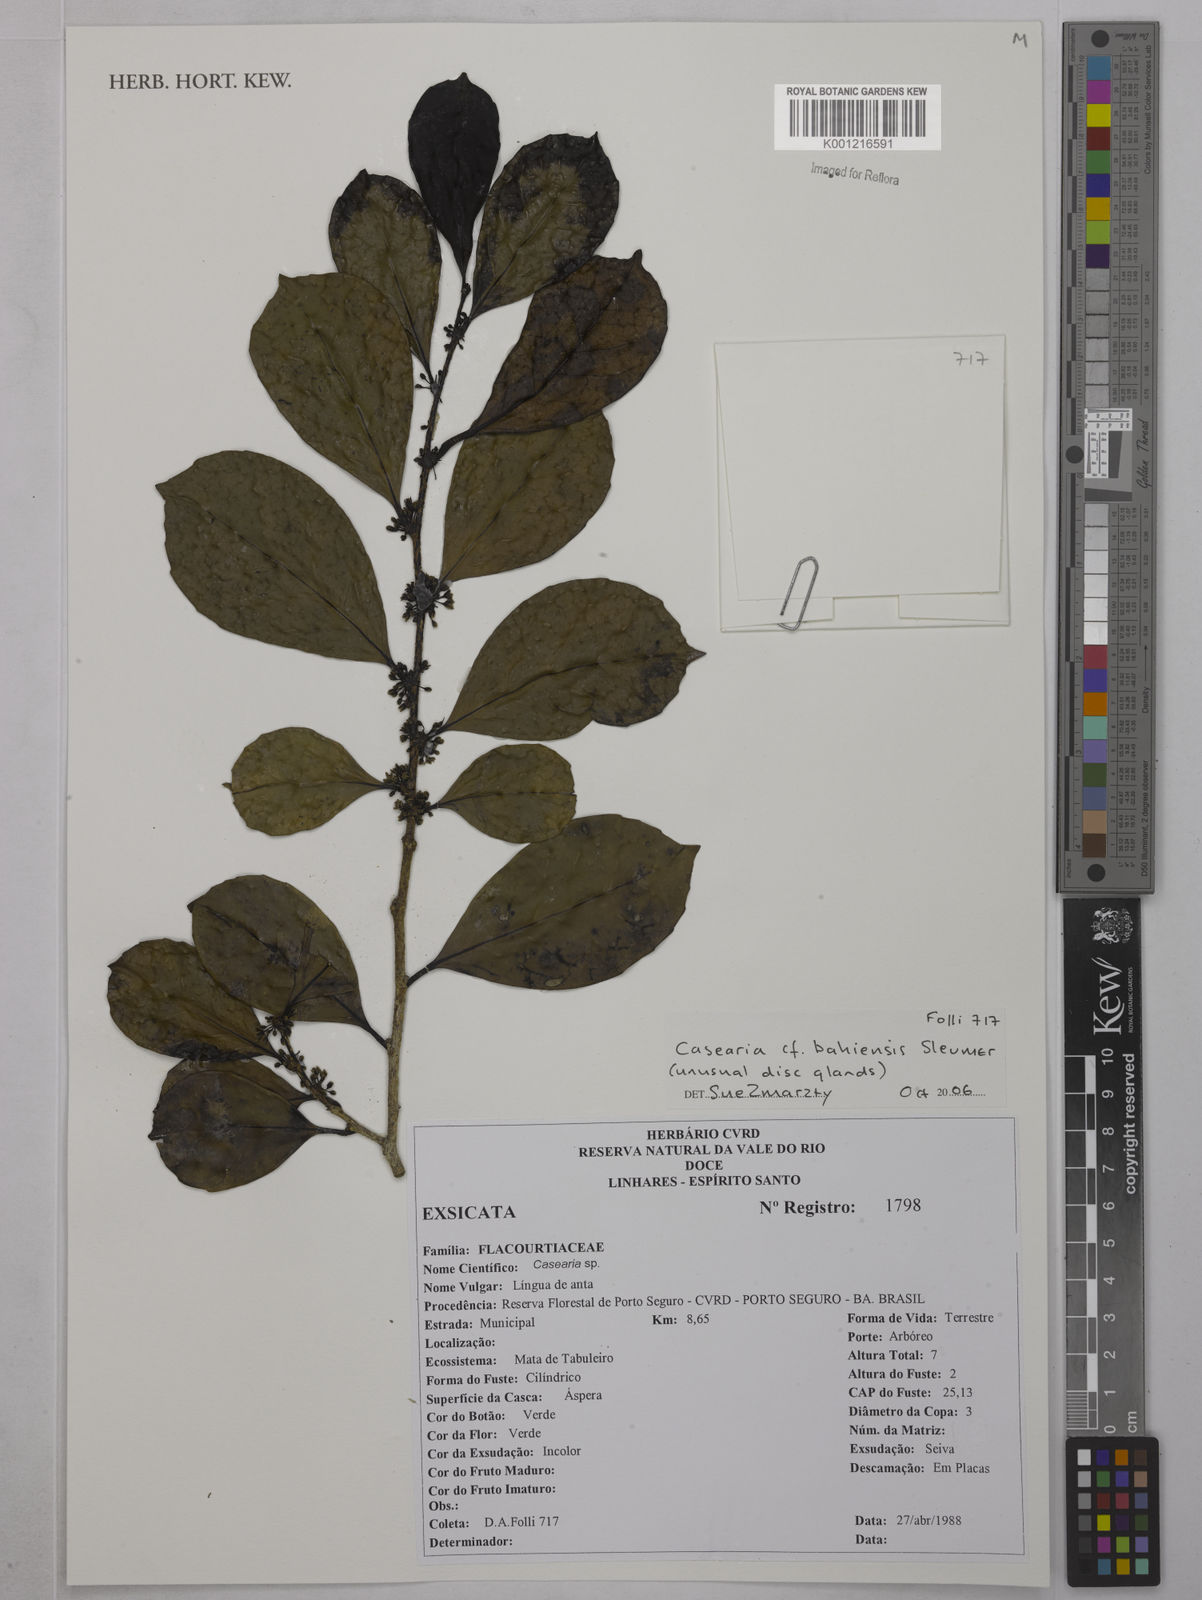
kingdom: Plantae
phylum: Tracheophyta
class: Magnoliopsida
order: Malpighiales
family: Salicaceae
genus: Casearia
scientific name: Casearia bahiensis
